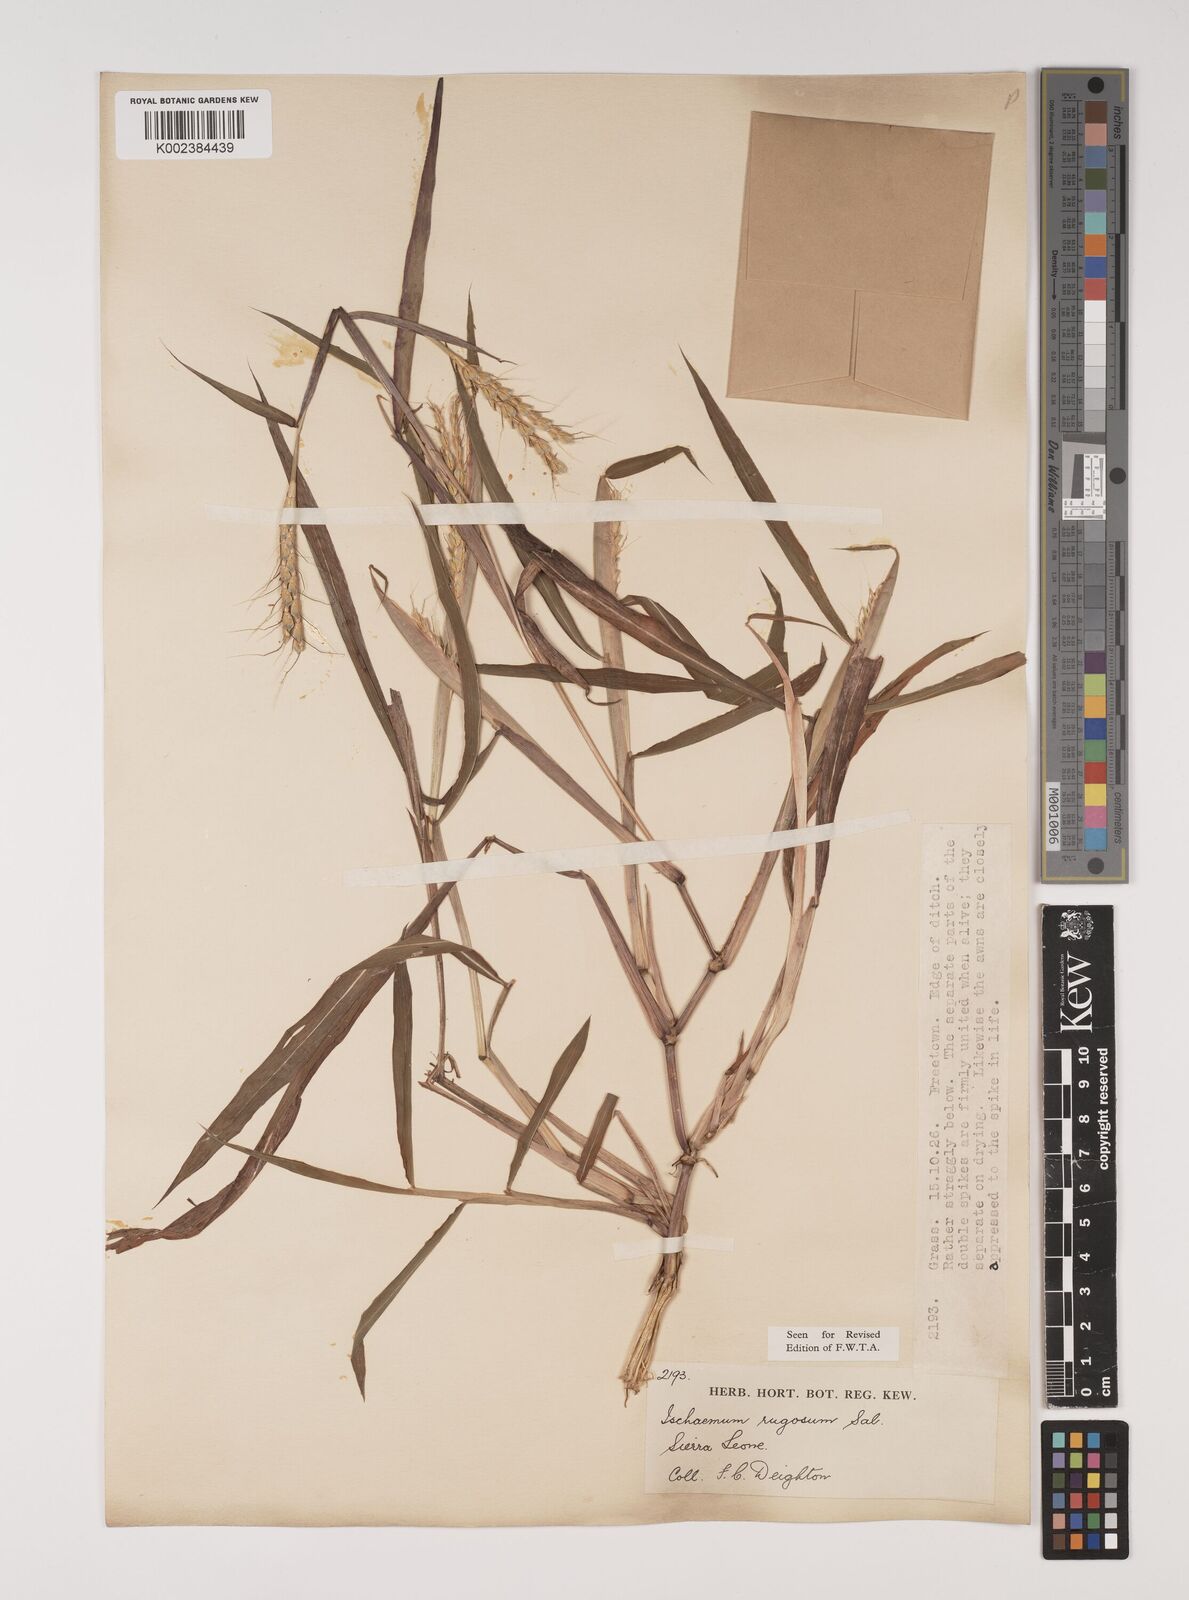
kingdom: Plantae
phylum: Tracheophyta
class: Liliopsida
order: Poales
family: Poaceae
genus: Ischaemum
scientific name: Ischaemum rugosum
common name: Saramatta grass
